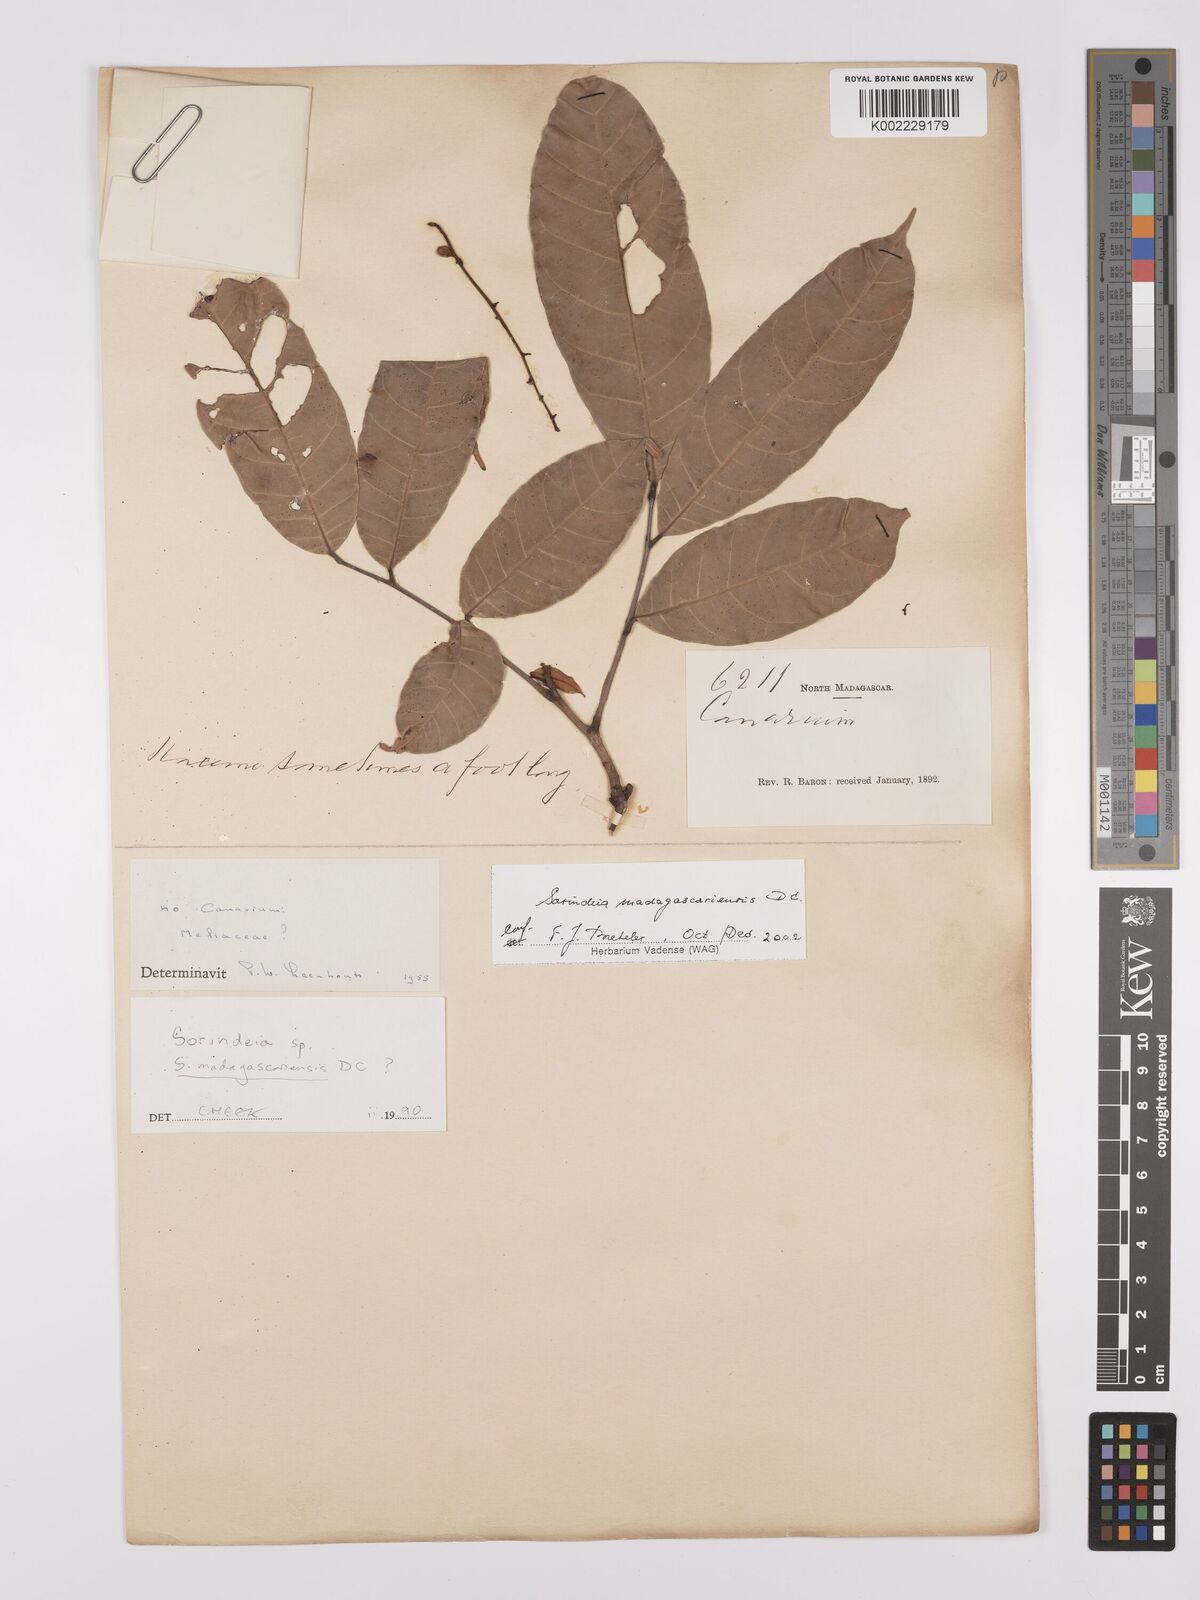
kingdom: Plantae
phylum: Tracheophyta
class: Magnoliopsida
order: Sapindales
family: Anacardiaceae
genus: Sorindeia
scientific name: Sorindeia
